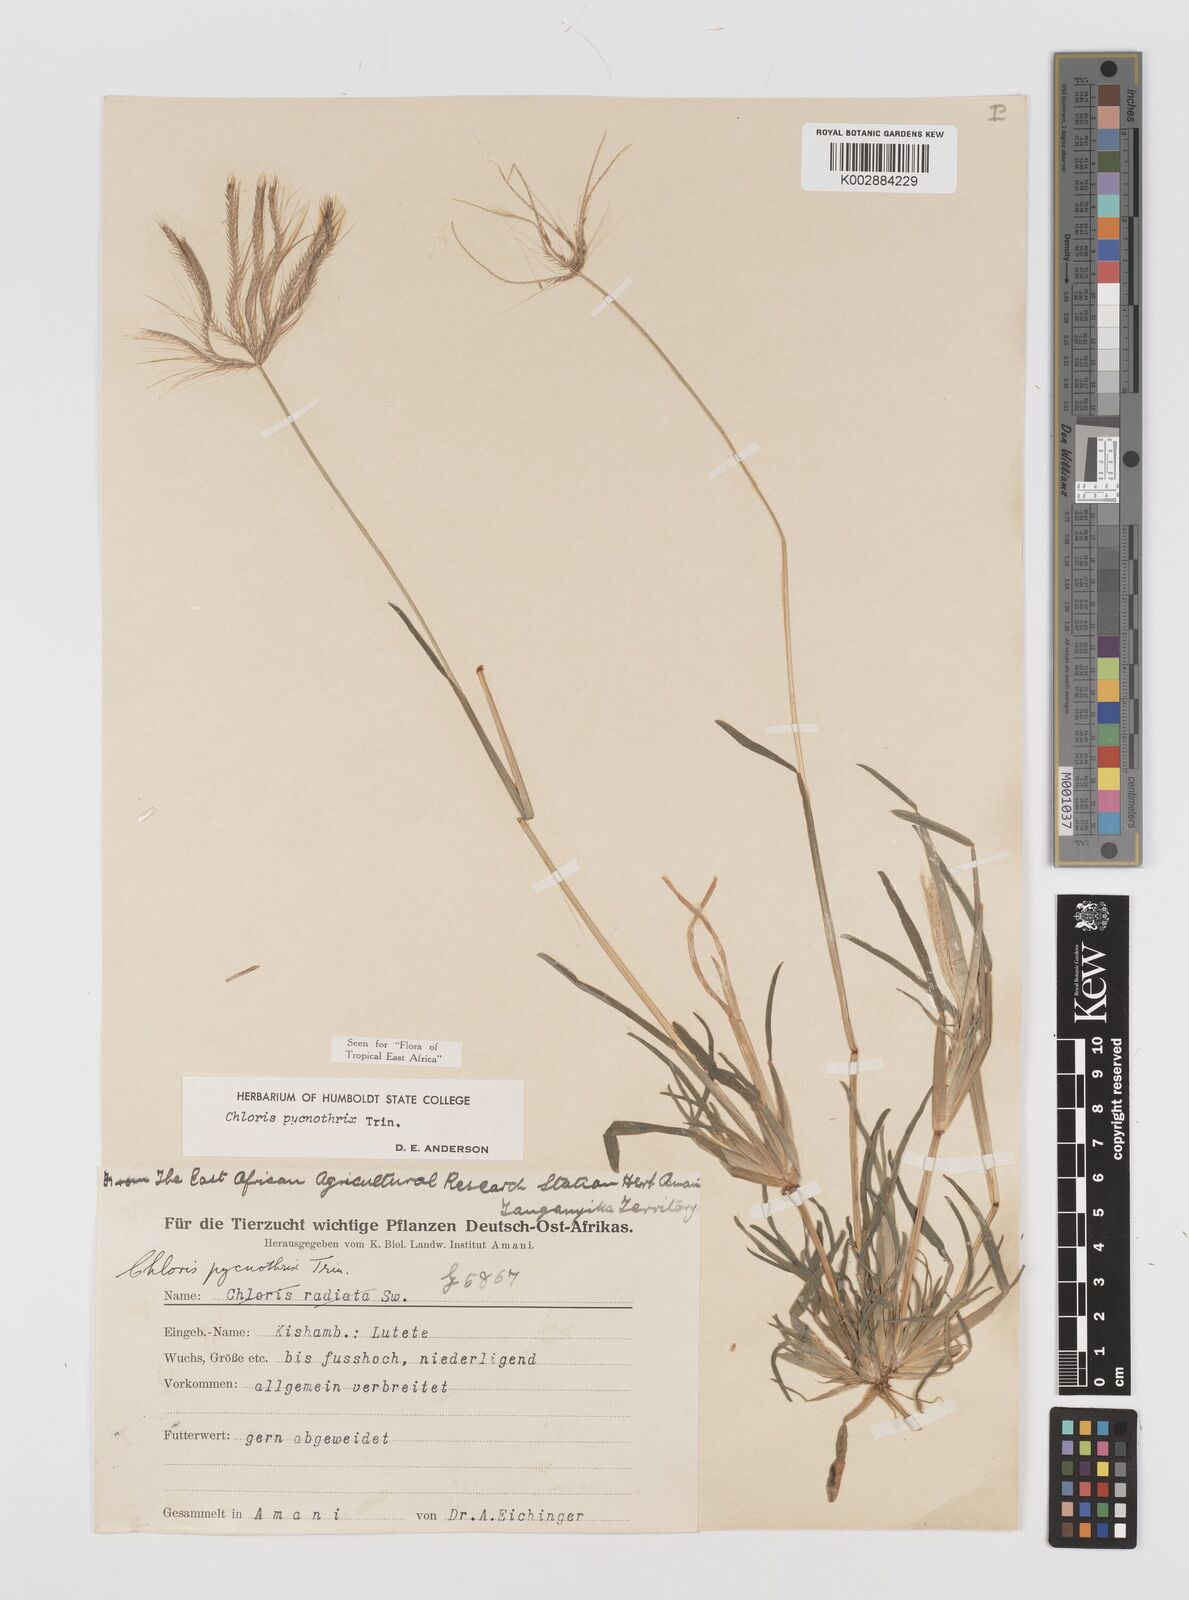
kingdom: Plantae
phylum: Tracheophyta
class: Liliopsida
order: Poales
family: Poaceae
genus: Chloris
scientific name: Chloris pycnothrix
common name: Spiderweb chloris
